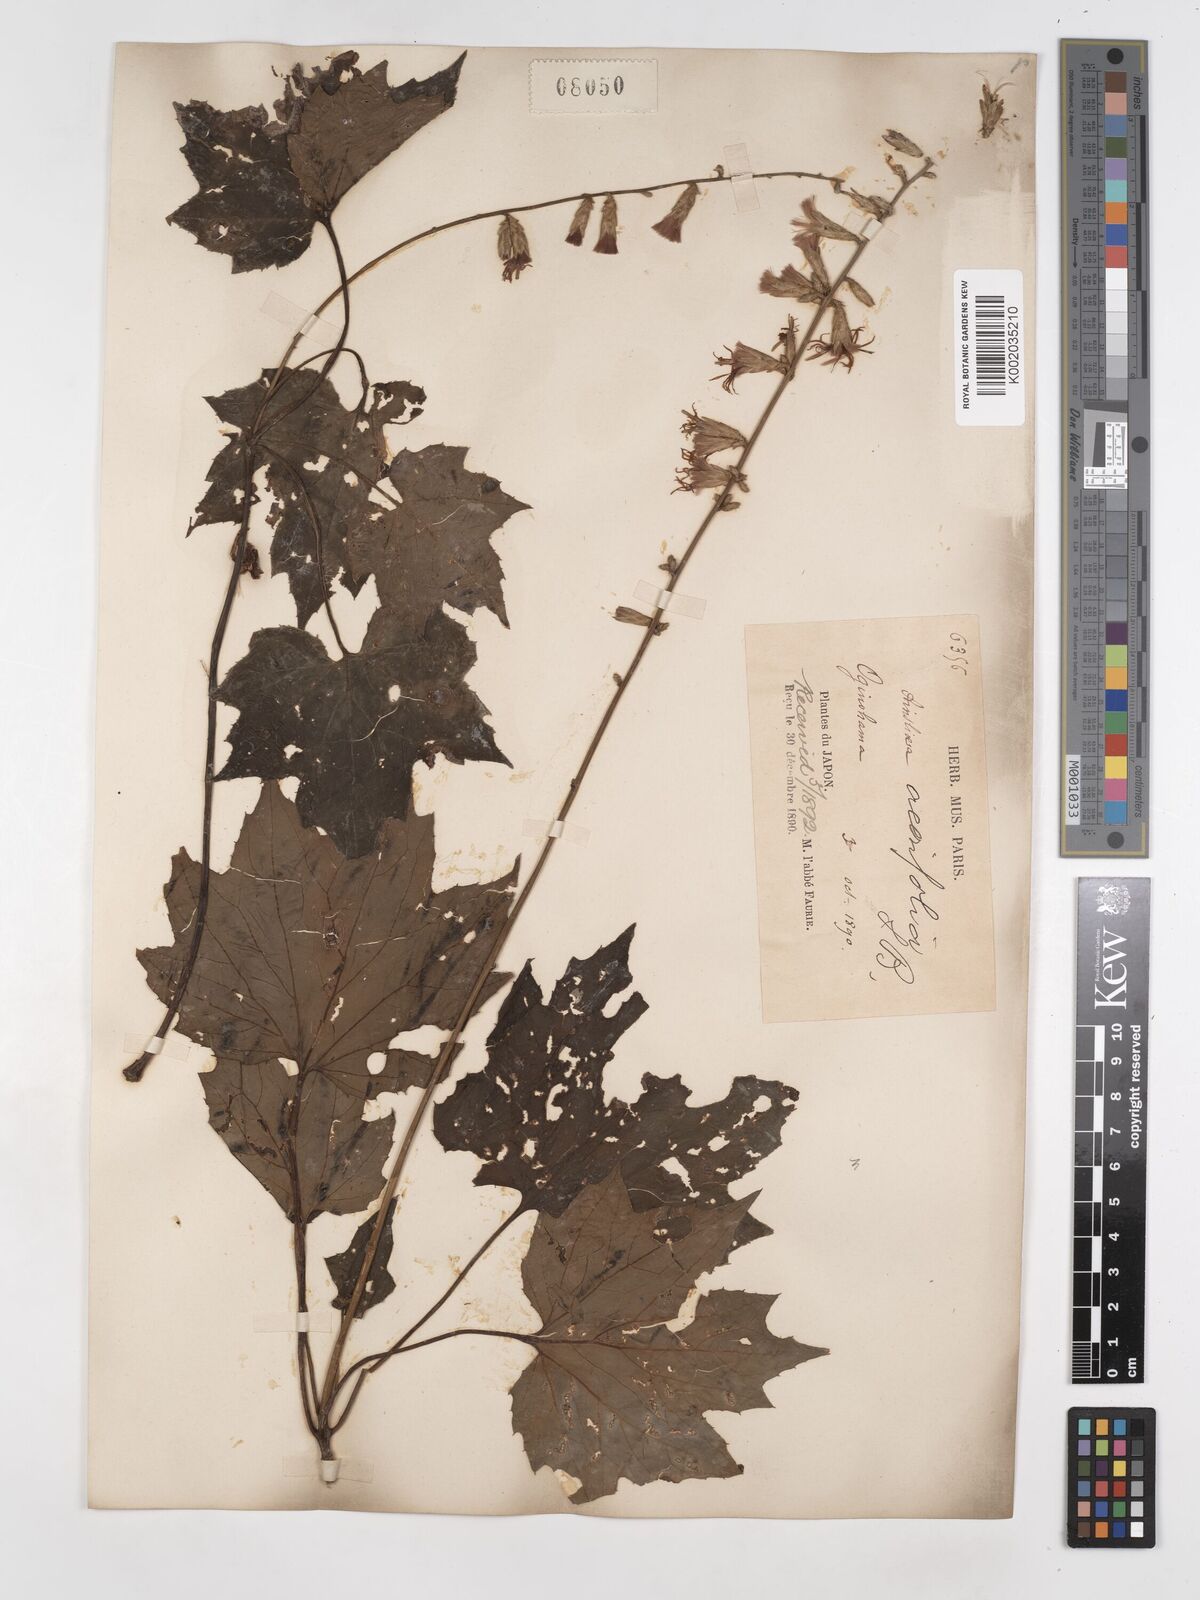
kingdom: Plantae
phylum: Tracheophyta
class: Magnoliopsida
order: Asterales
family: Asteraceae
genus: Ainsliaea
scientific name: Ainsliaea acerifolia
